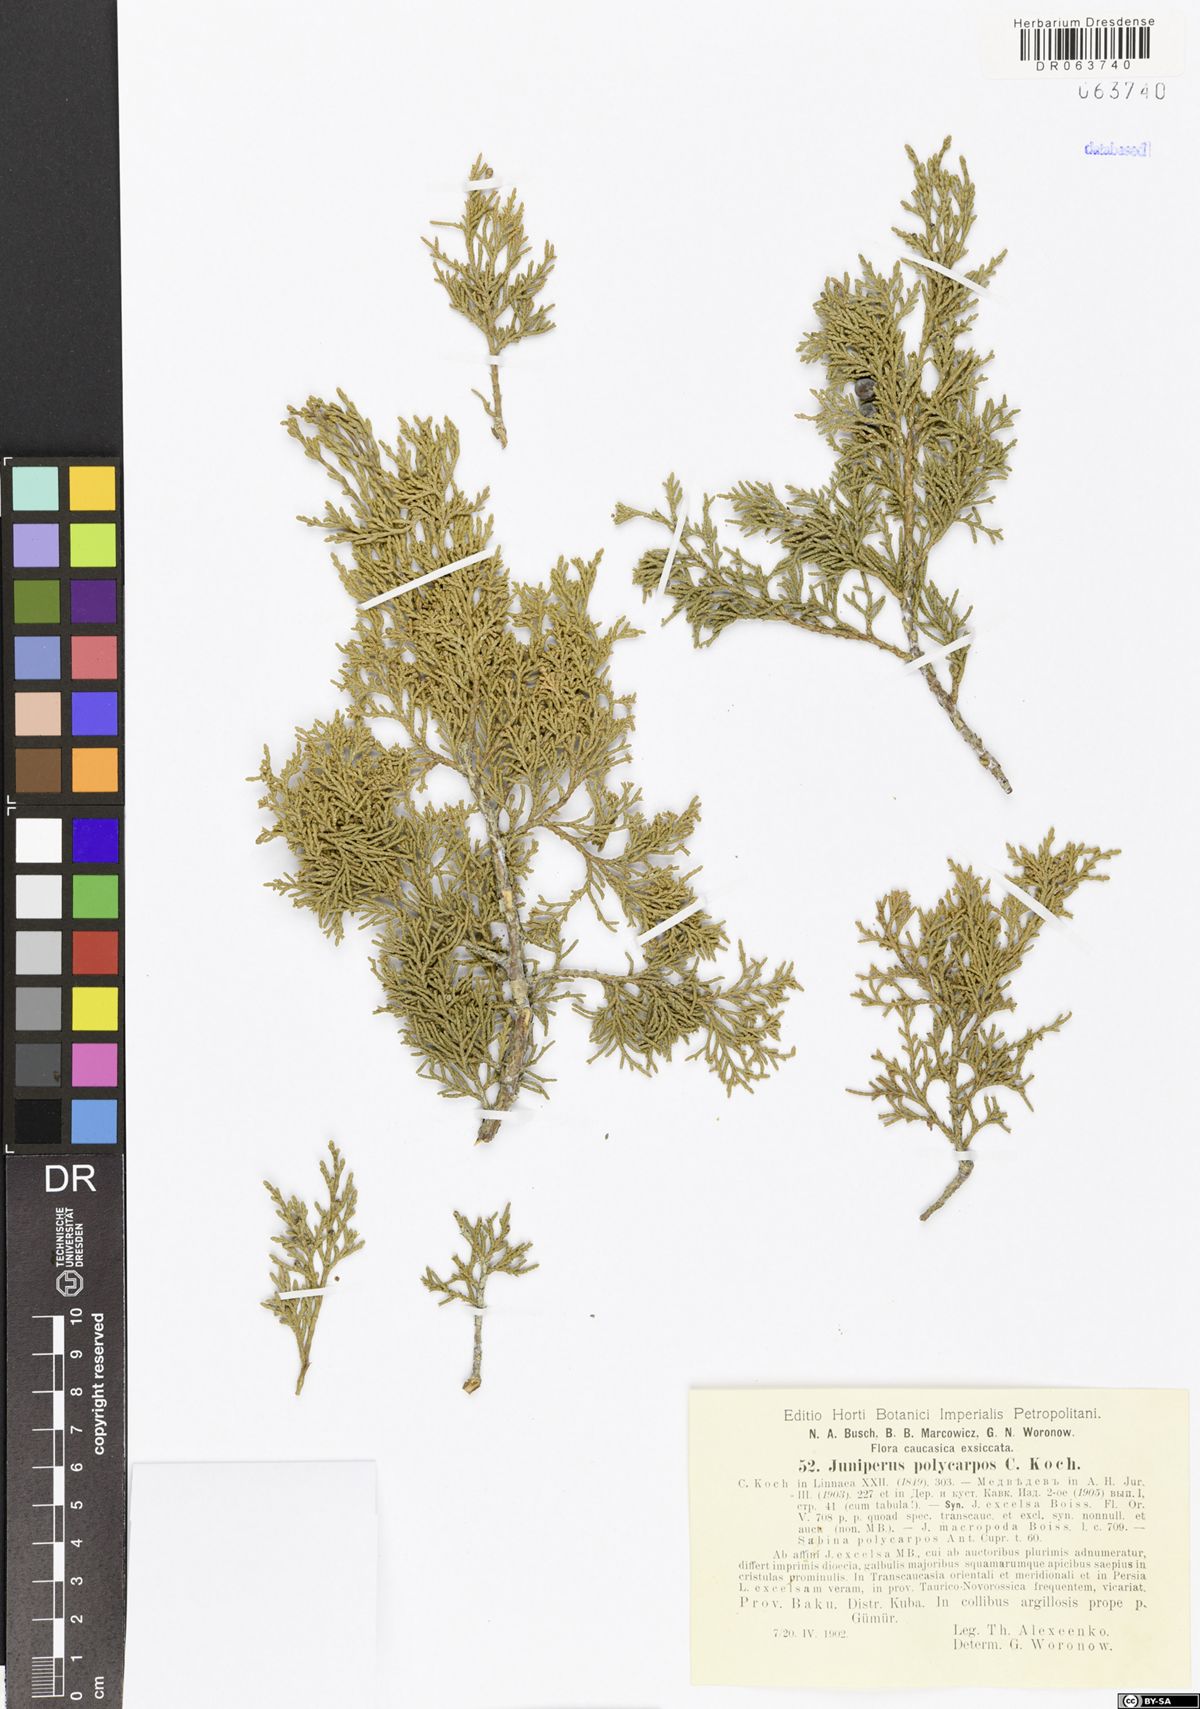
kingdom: Plantae
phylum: Tracheophyta
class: Pinopsida
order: Pinales
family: Cupressaceae
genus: Juniperus
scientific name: Juniperus excelsa
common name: Crimean juniper
